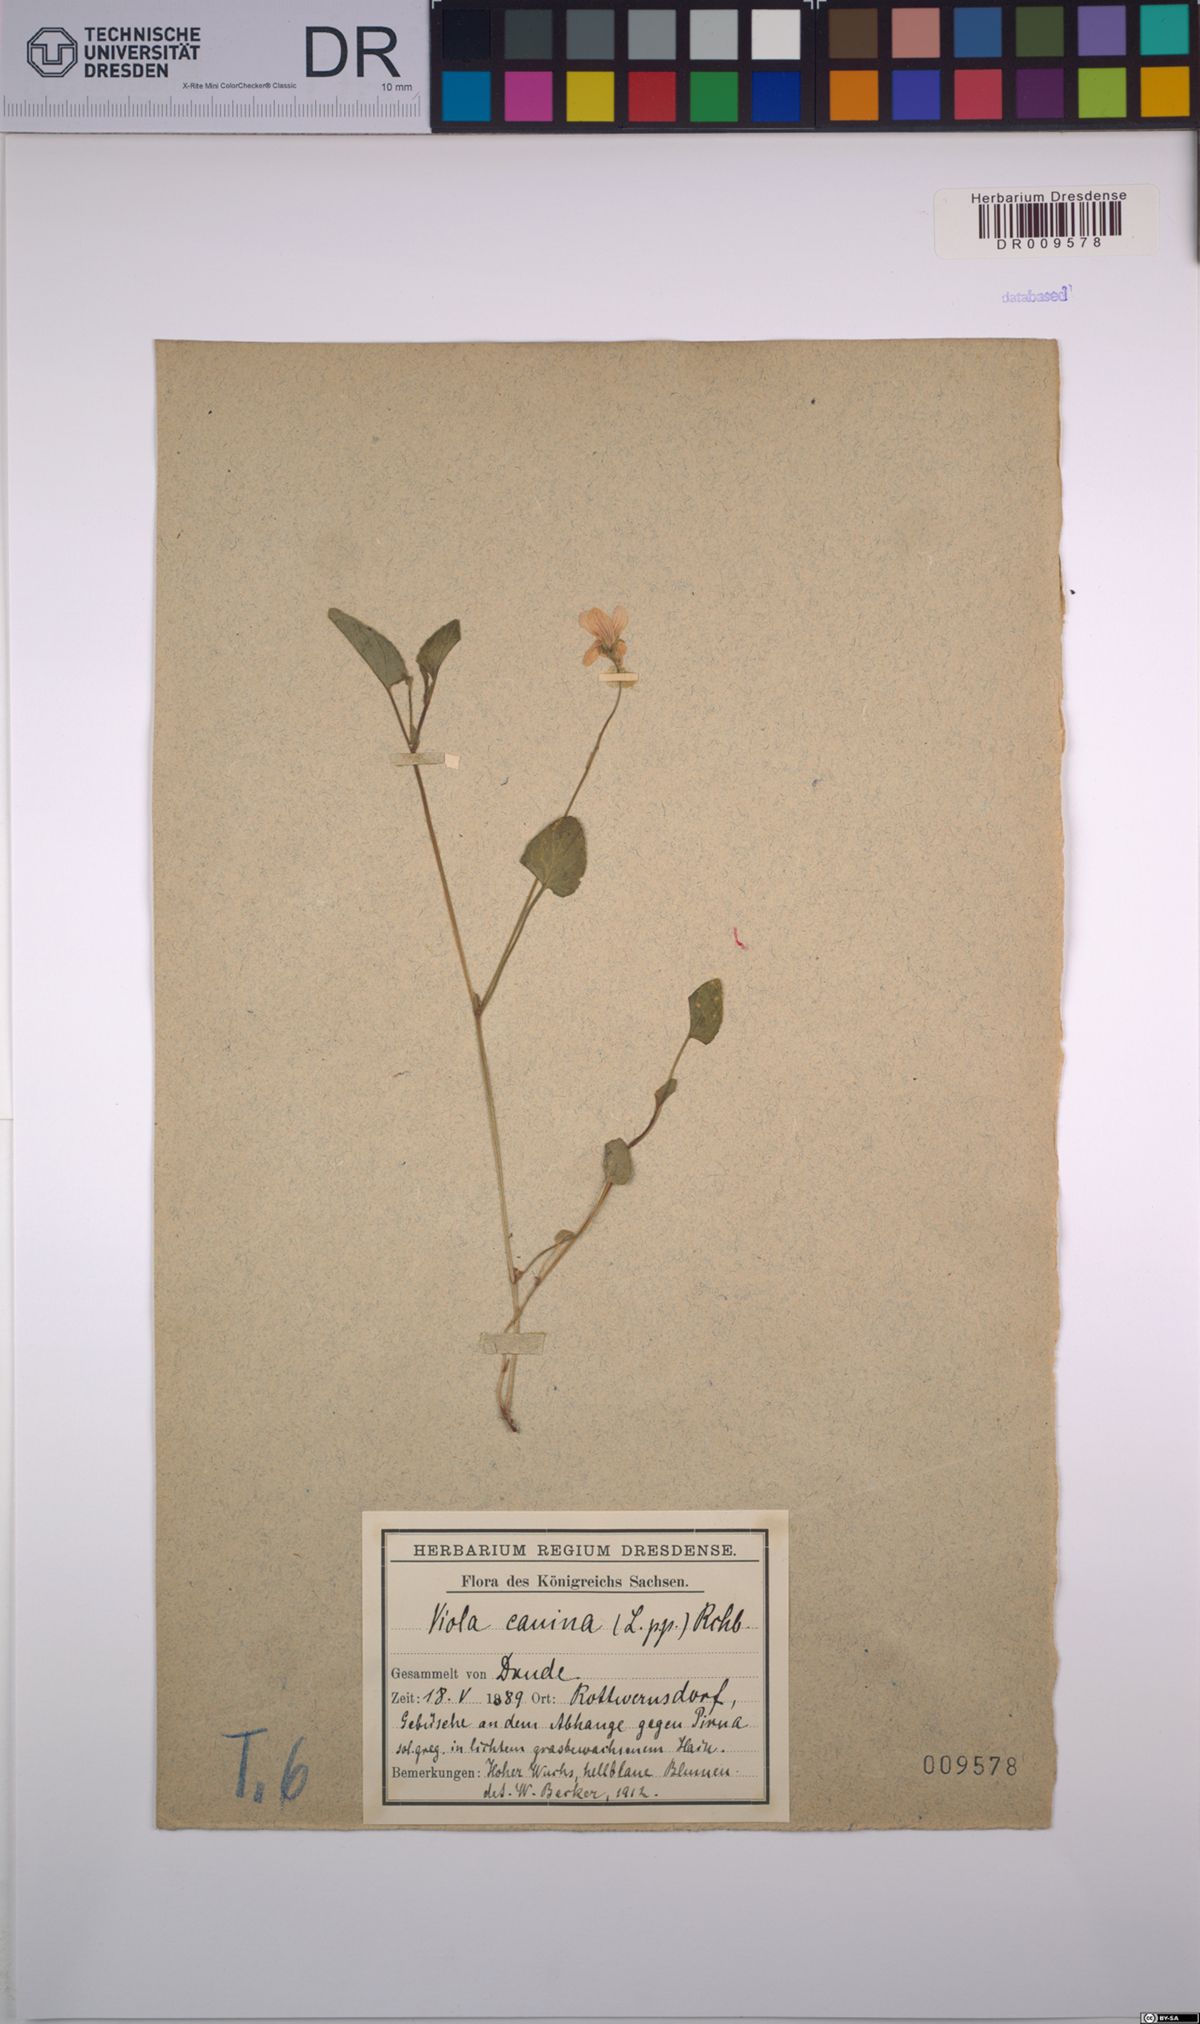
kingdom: Plantae
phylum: Tracheophyta
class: Magnoliopsida
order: Malpighiales
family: Violaceae
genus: Viola
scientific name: Viola canina
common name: Heath dog-violet
